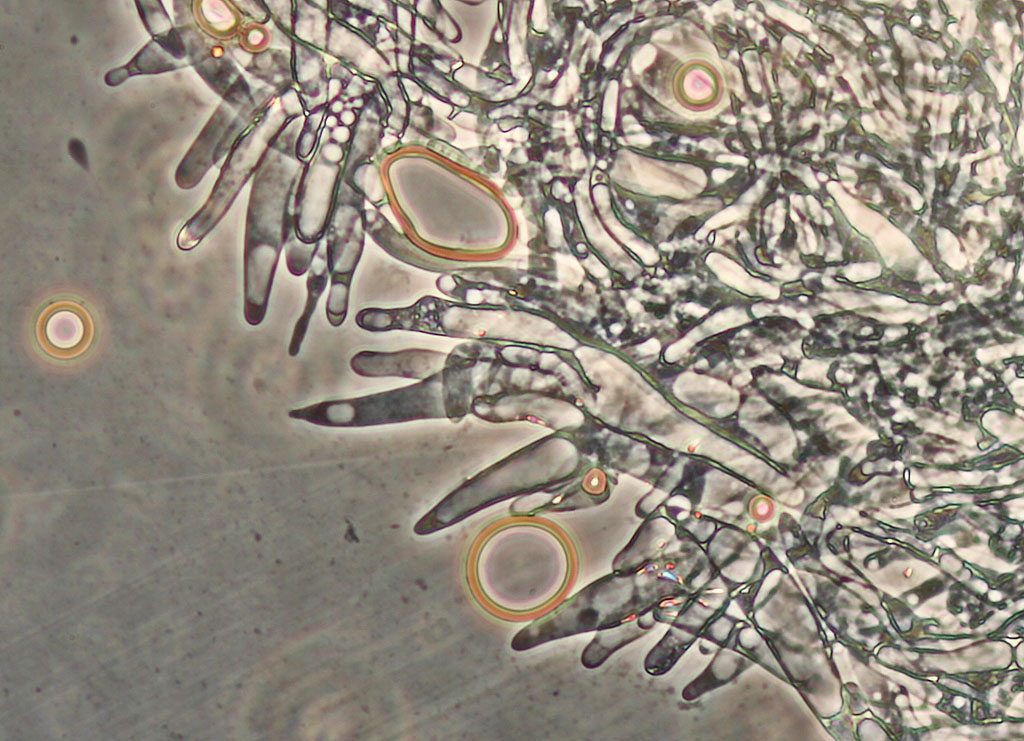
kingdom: Fungi
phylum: Basidiomycota
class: Agaricomycetes
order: Agaricales
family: Pluteaceae
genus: Pluteus
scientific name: Pluteus
